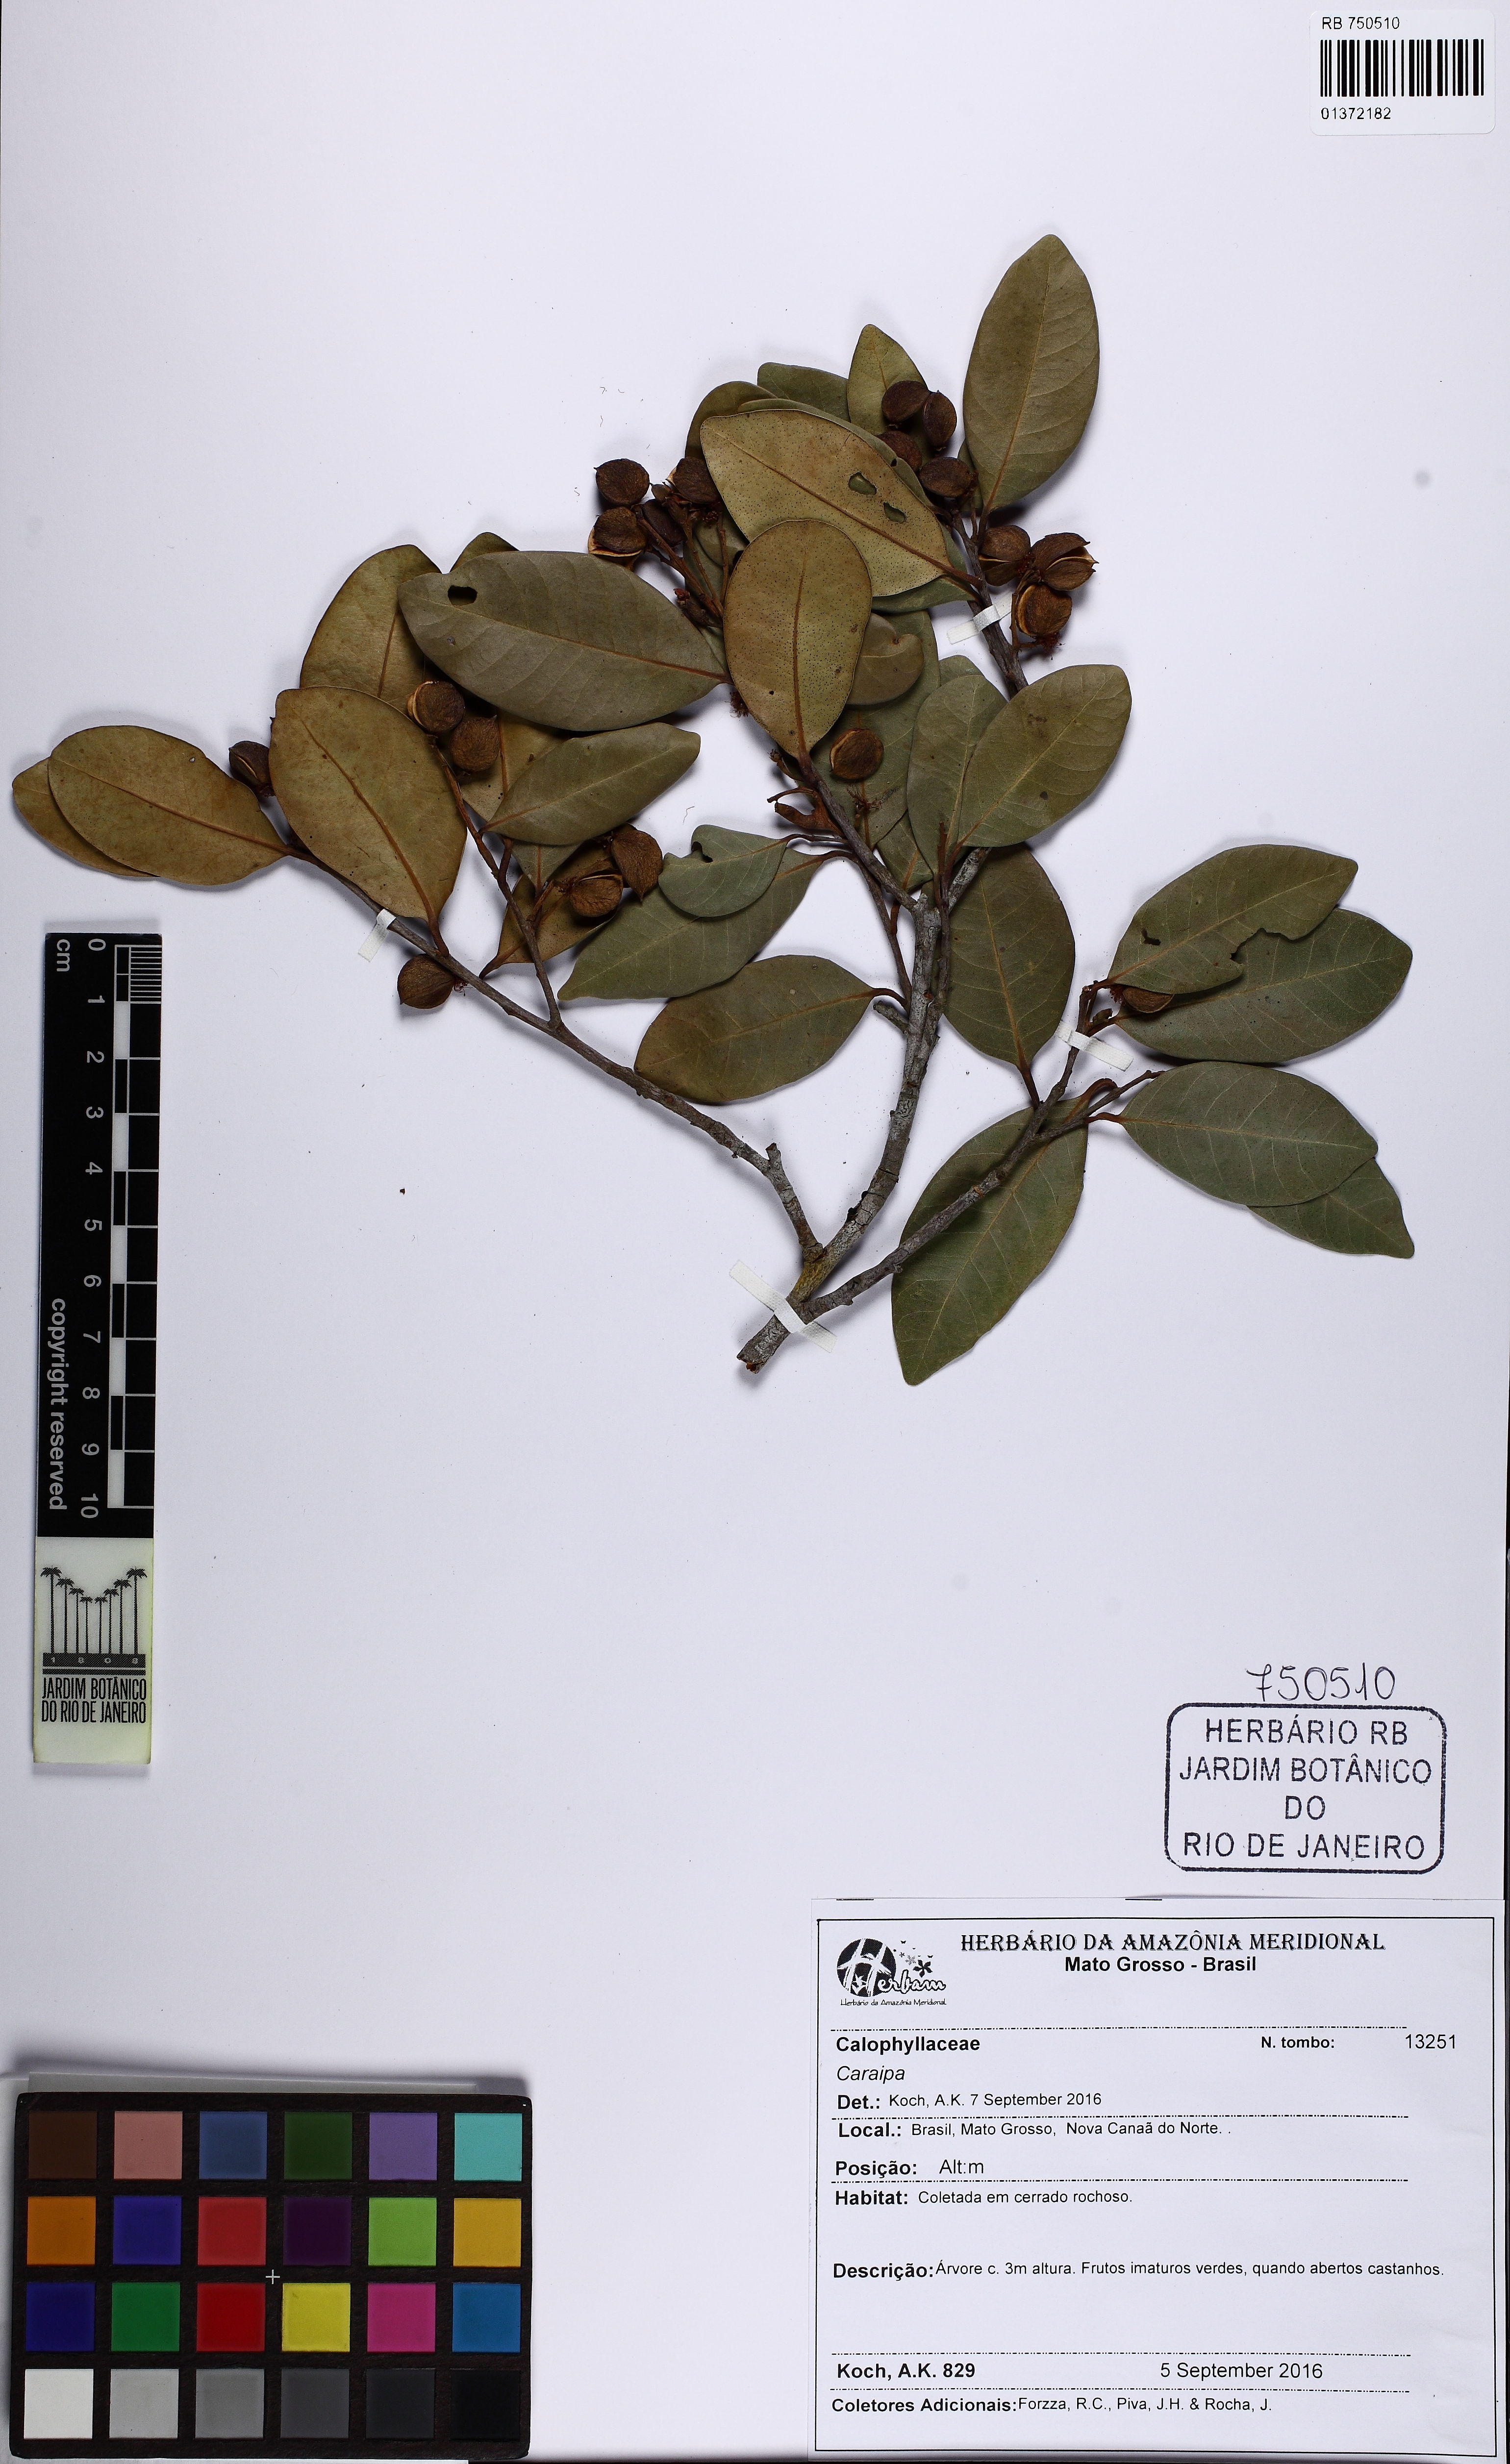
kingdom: Plantae
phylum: Tracheophyta
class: Magnoliopsida
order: Malpighiales
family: Calophyllaceae
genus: Caraipa
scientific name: Caraipa
